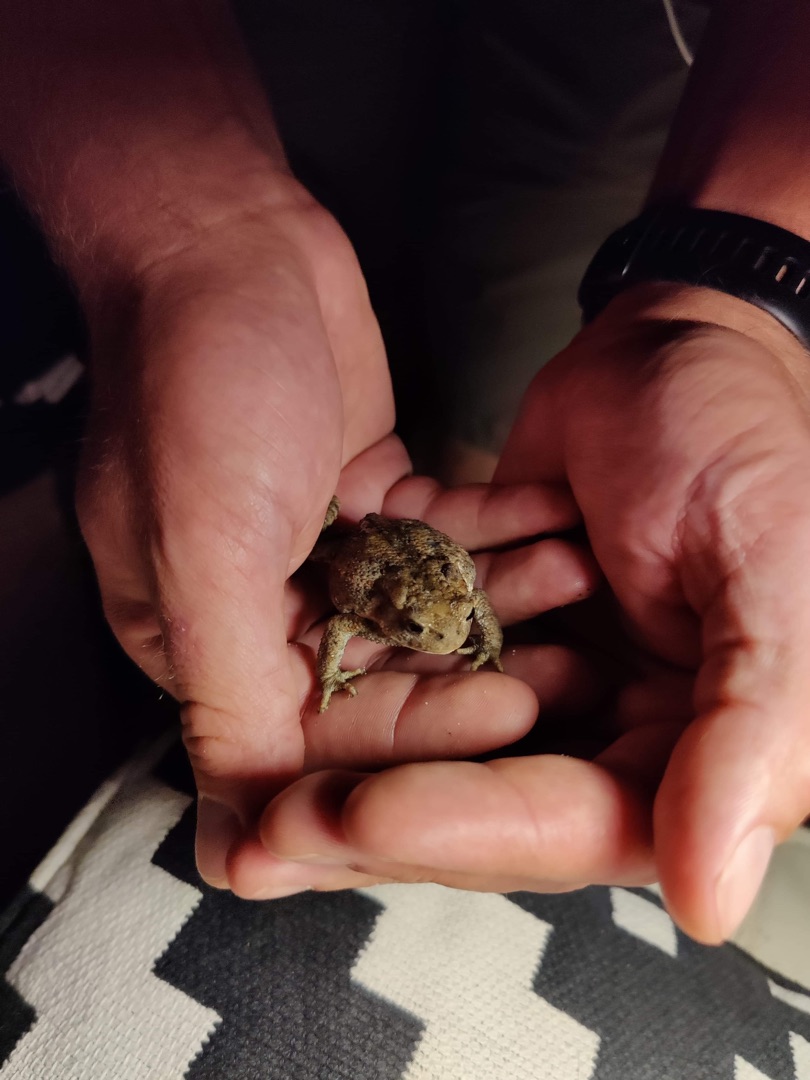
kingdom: Animalia
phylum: Chordata
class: Amphibia
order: Anura
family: Bufonidae
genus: Bufo
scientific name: Bufo bufo
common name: Skrubtudse
